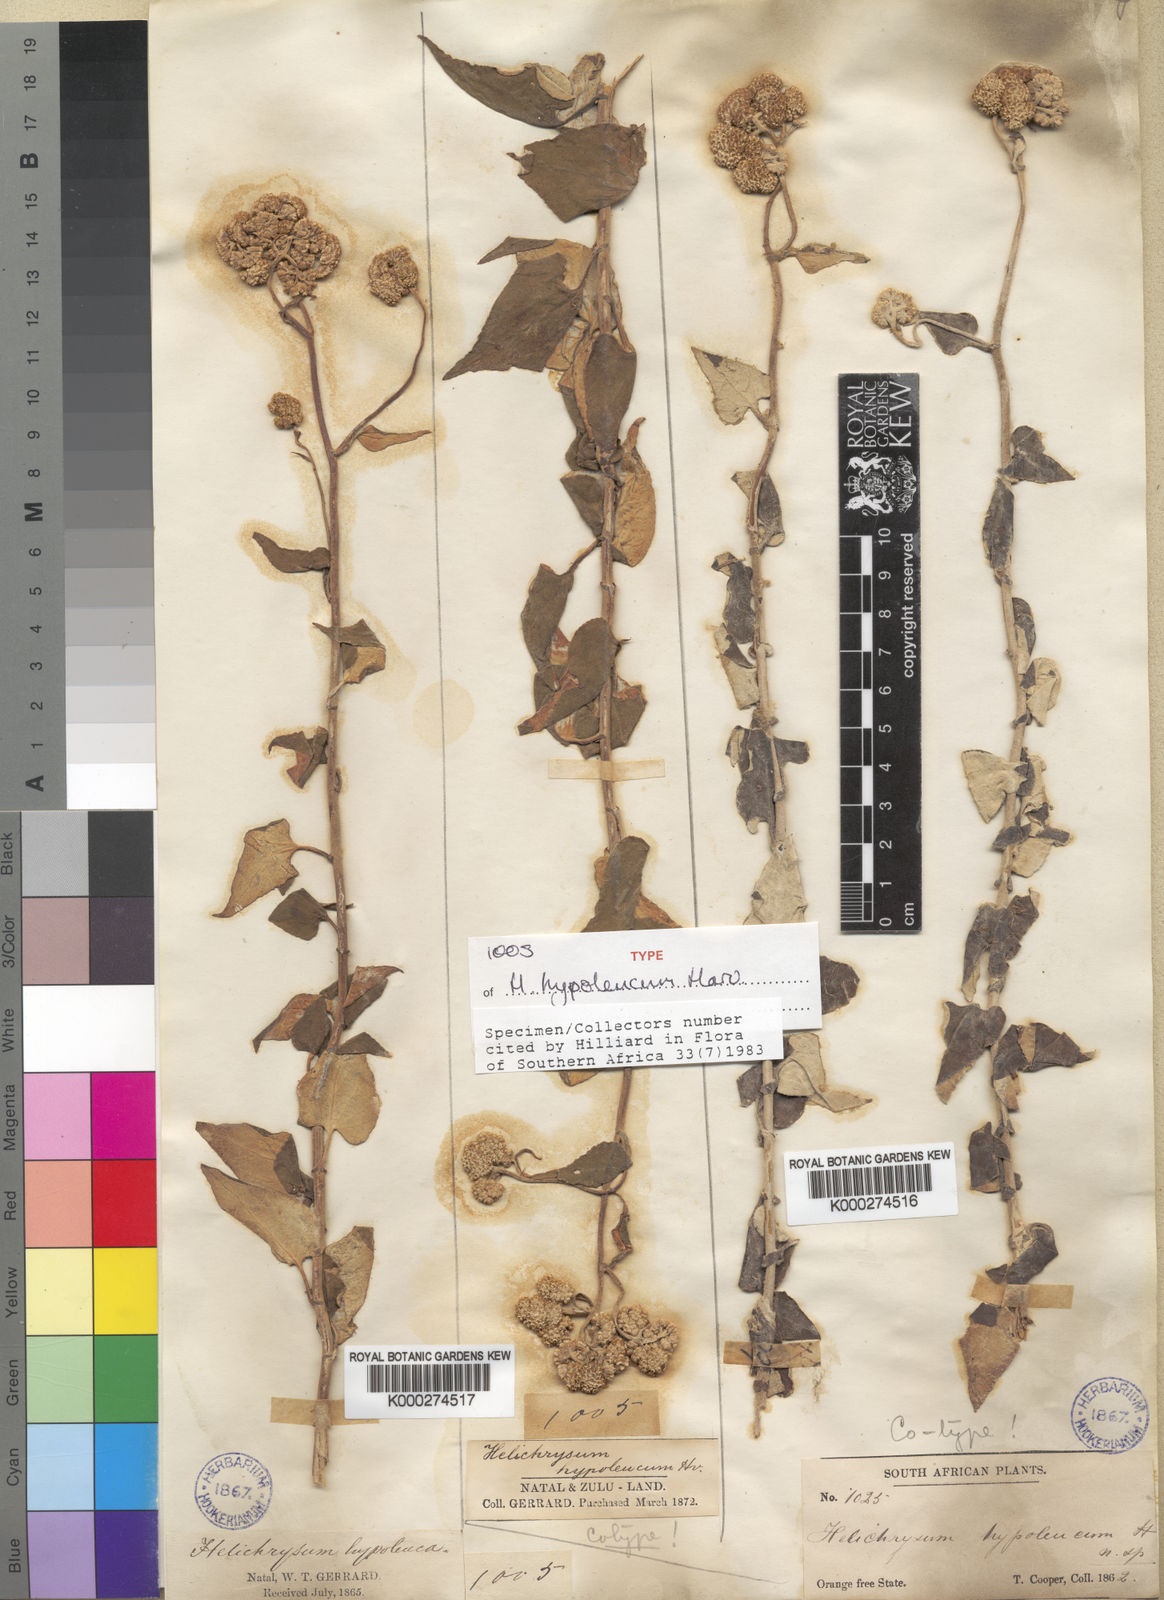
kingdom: Plantae
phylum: Tracheophyta
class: Magnoliopsida
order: Asterales
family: Asteraceae
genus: Helichrysum
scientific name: Helichrysum hypoleucum
